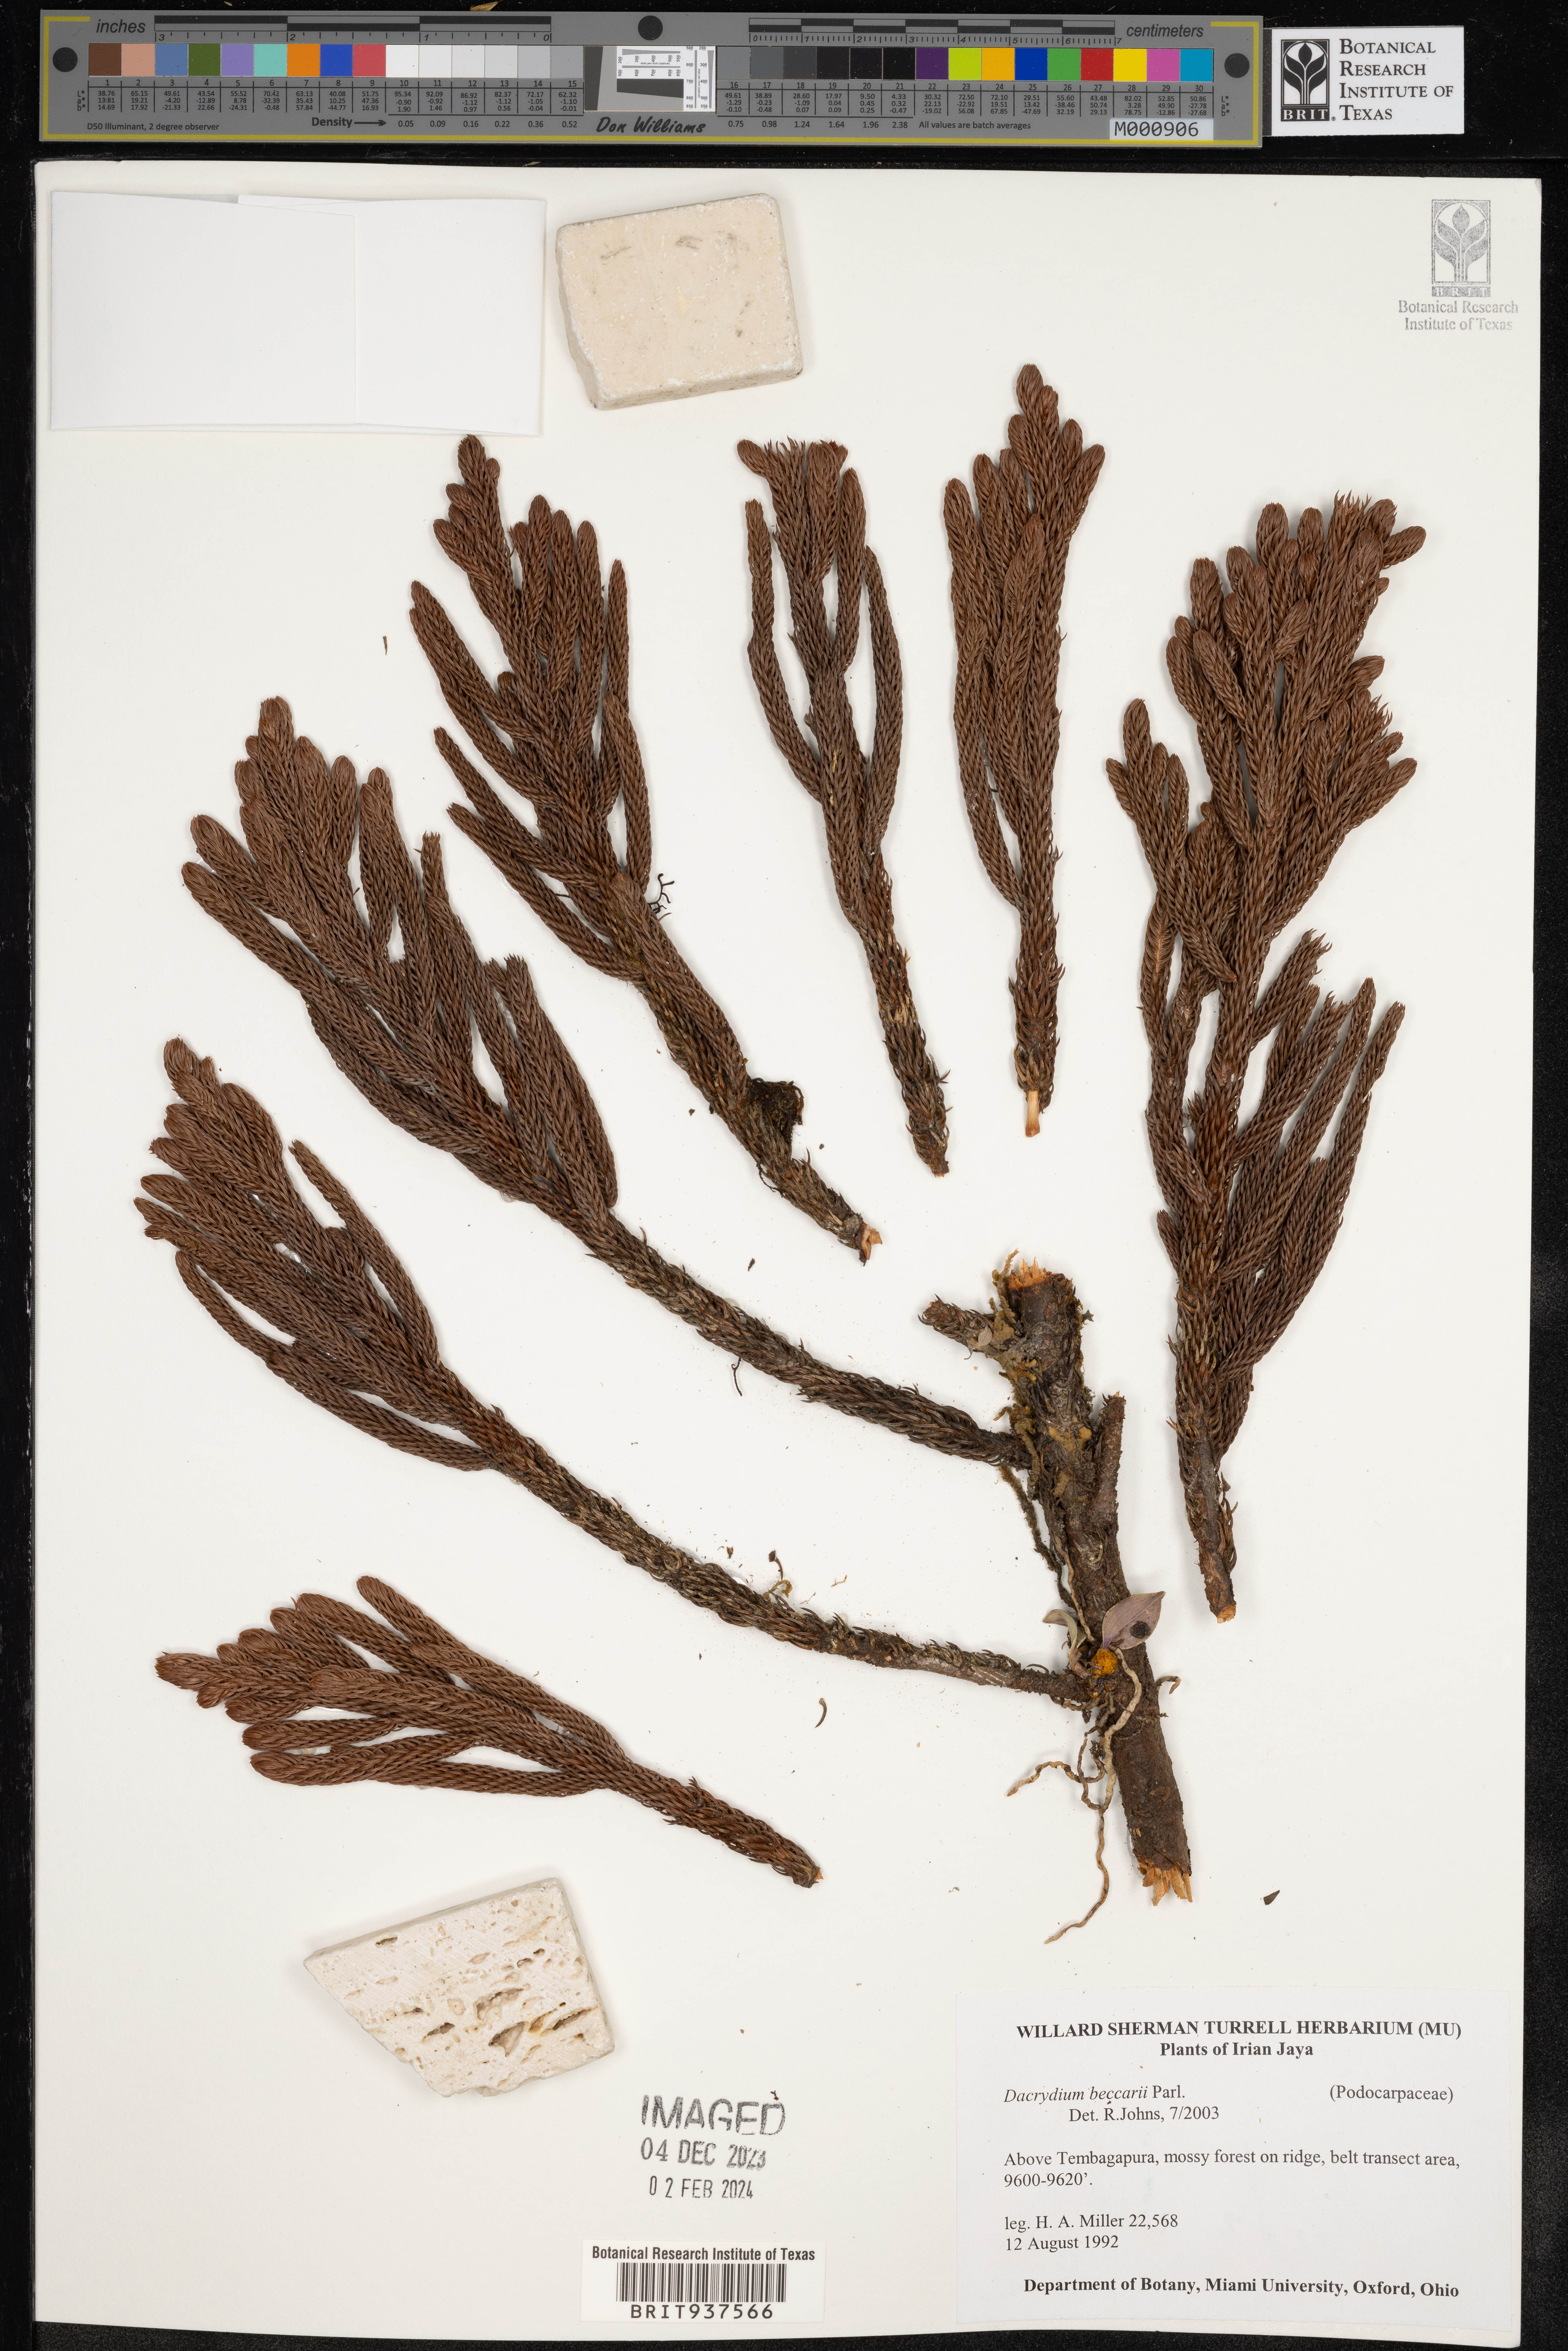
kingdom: Plantae
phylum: Tracheophyta
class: Pinopsida
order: Pinales
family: Podocarpaceae
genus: Dacrydium
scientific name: Dacrydium
